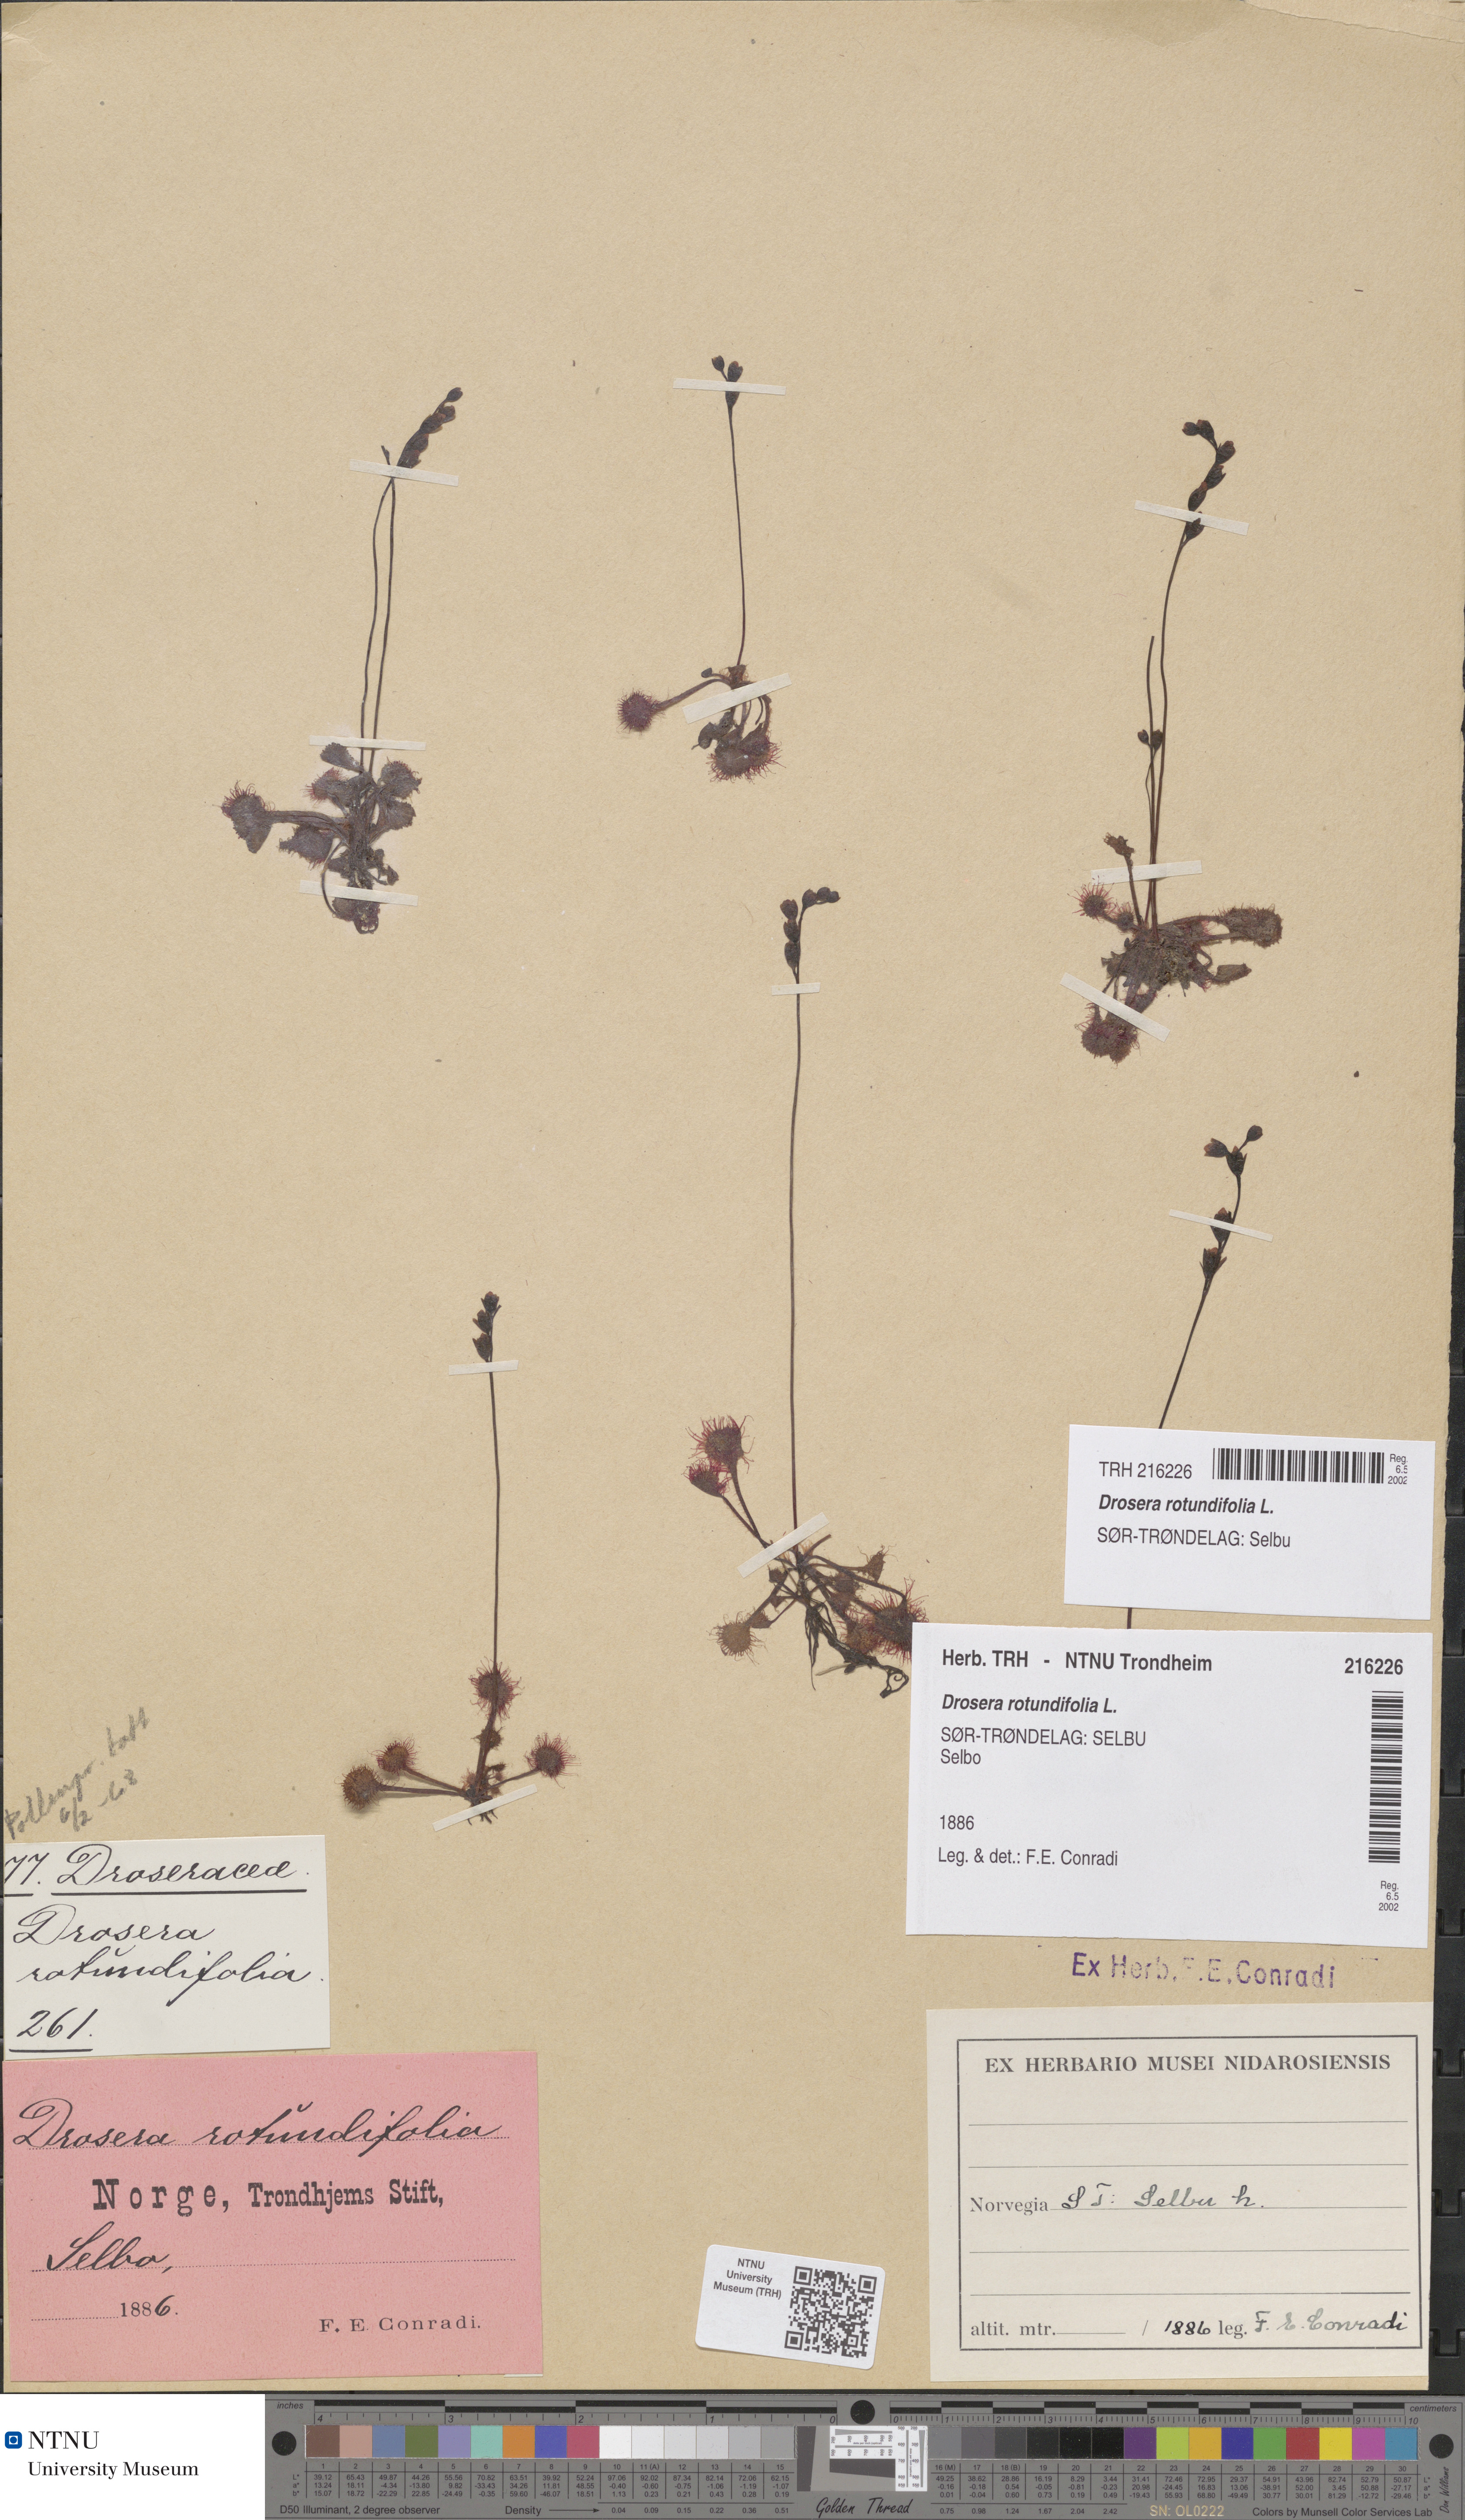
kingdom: Plantae
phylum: Tracheophyta
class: Magnoliopsida
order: Caryophyllales
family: Droseraceae
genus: Drosera
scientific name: Drosera rotundifolia
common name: Round-leaved sundew
